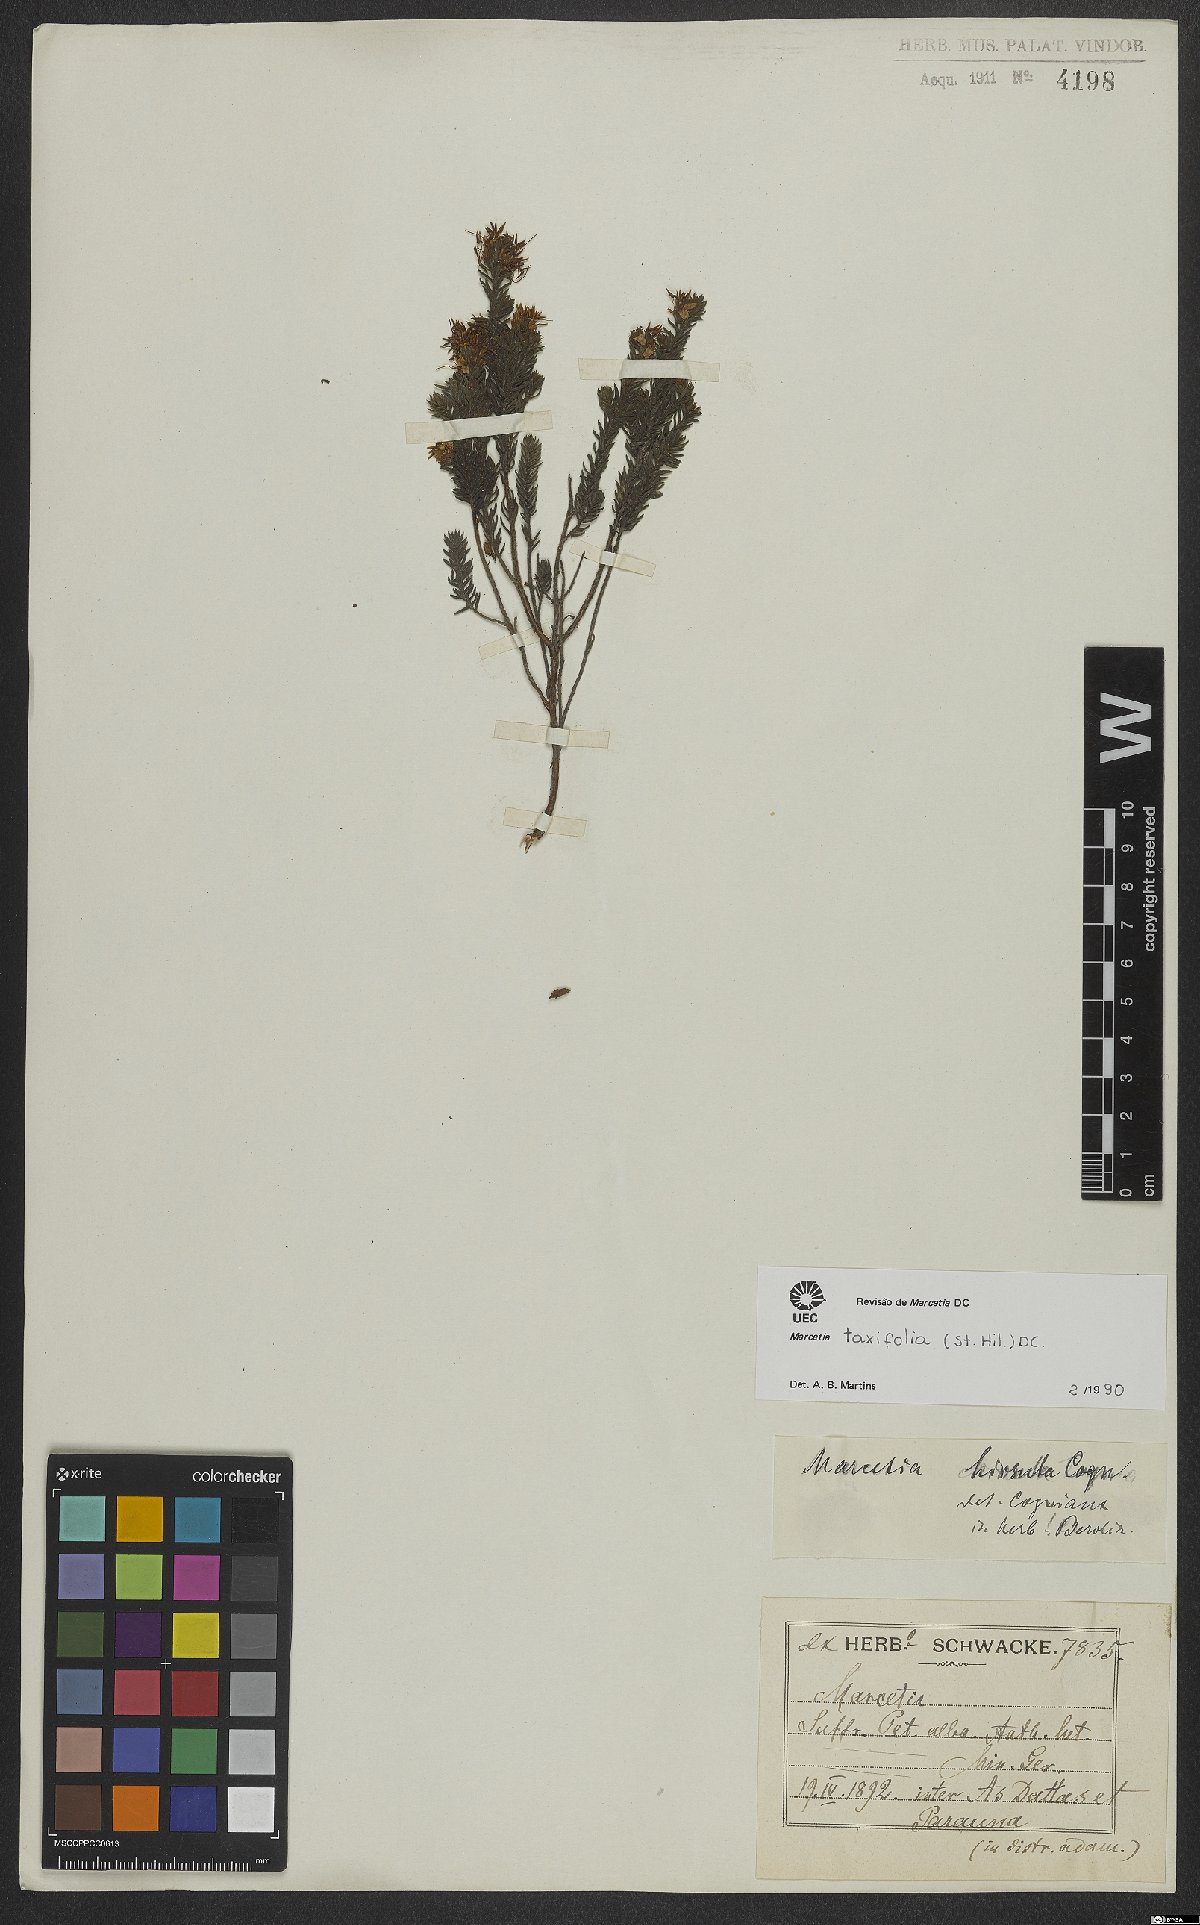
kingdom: Plantae
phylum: Tracheophyta
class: Magnoliopsida
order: Myrtales
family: Melastomataceae
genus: Marcetia
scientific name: Marcetia taxifolia
